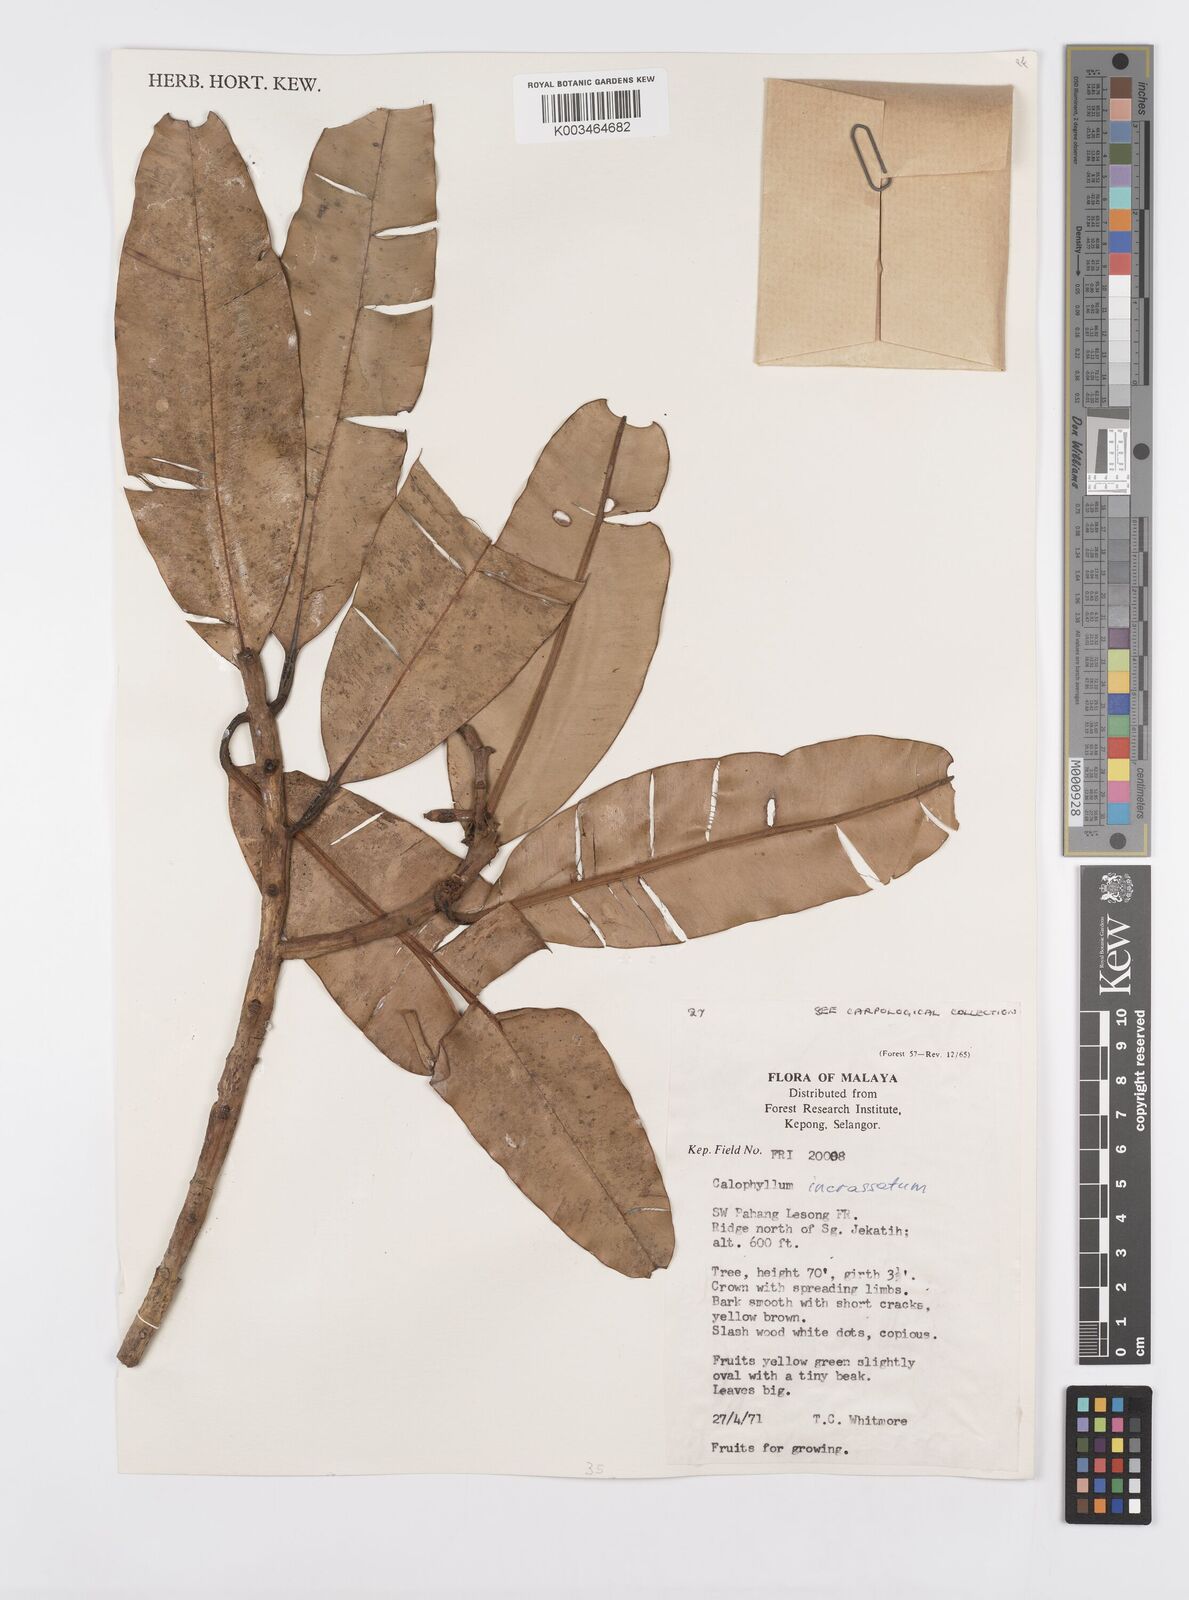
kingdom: Plantae
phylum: Tracheophyta
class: Magnoliopsida
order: Malpighiales
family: Calophyllaceae
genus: Calophyllum
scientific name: Calophyllum wallichiana
